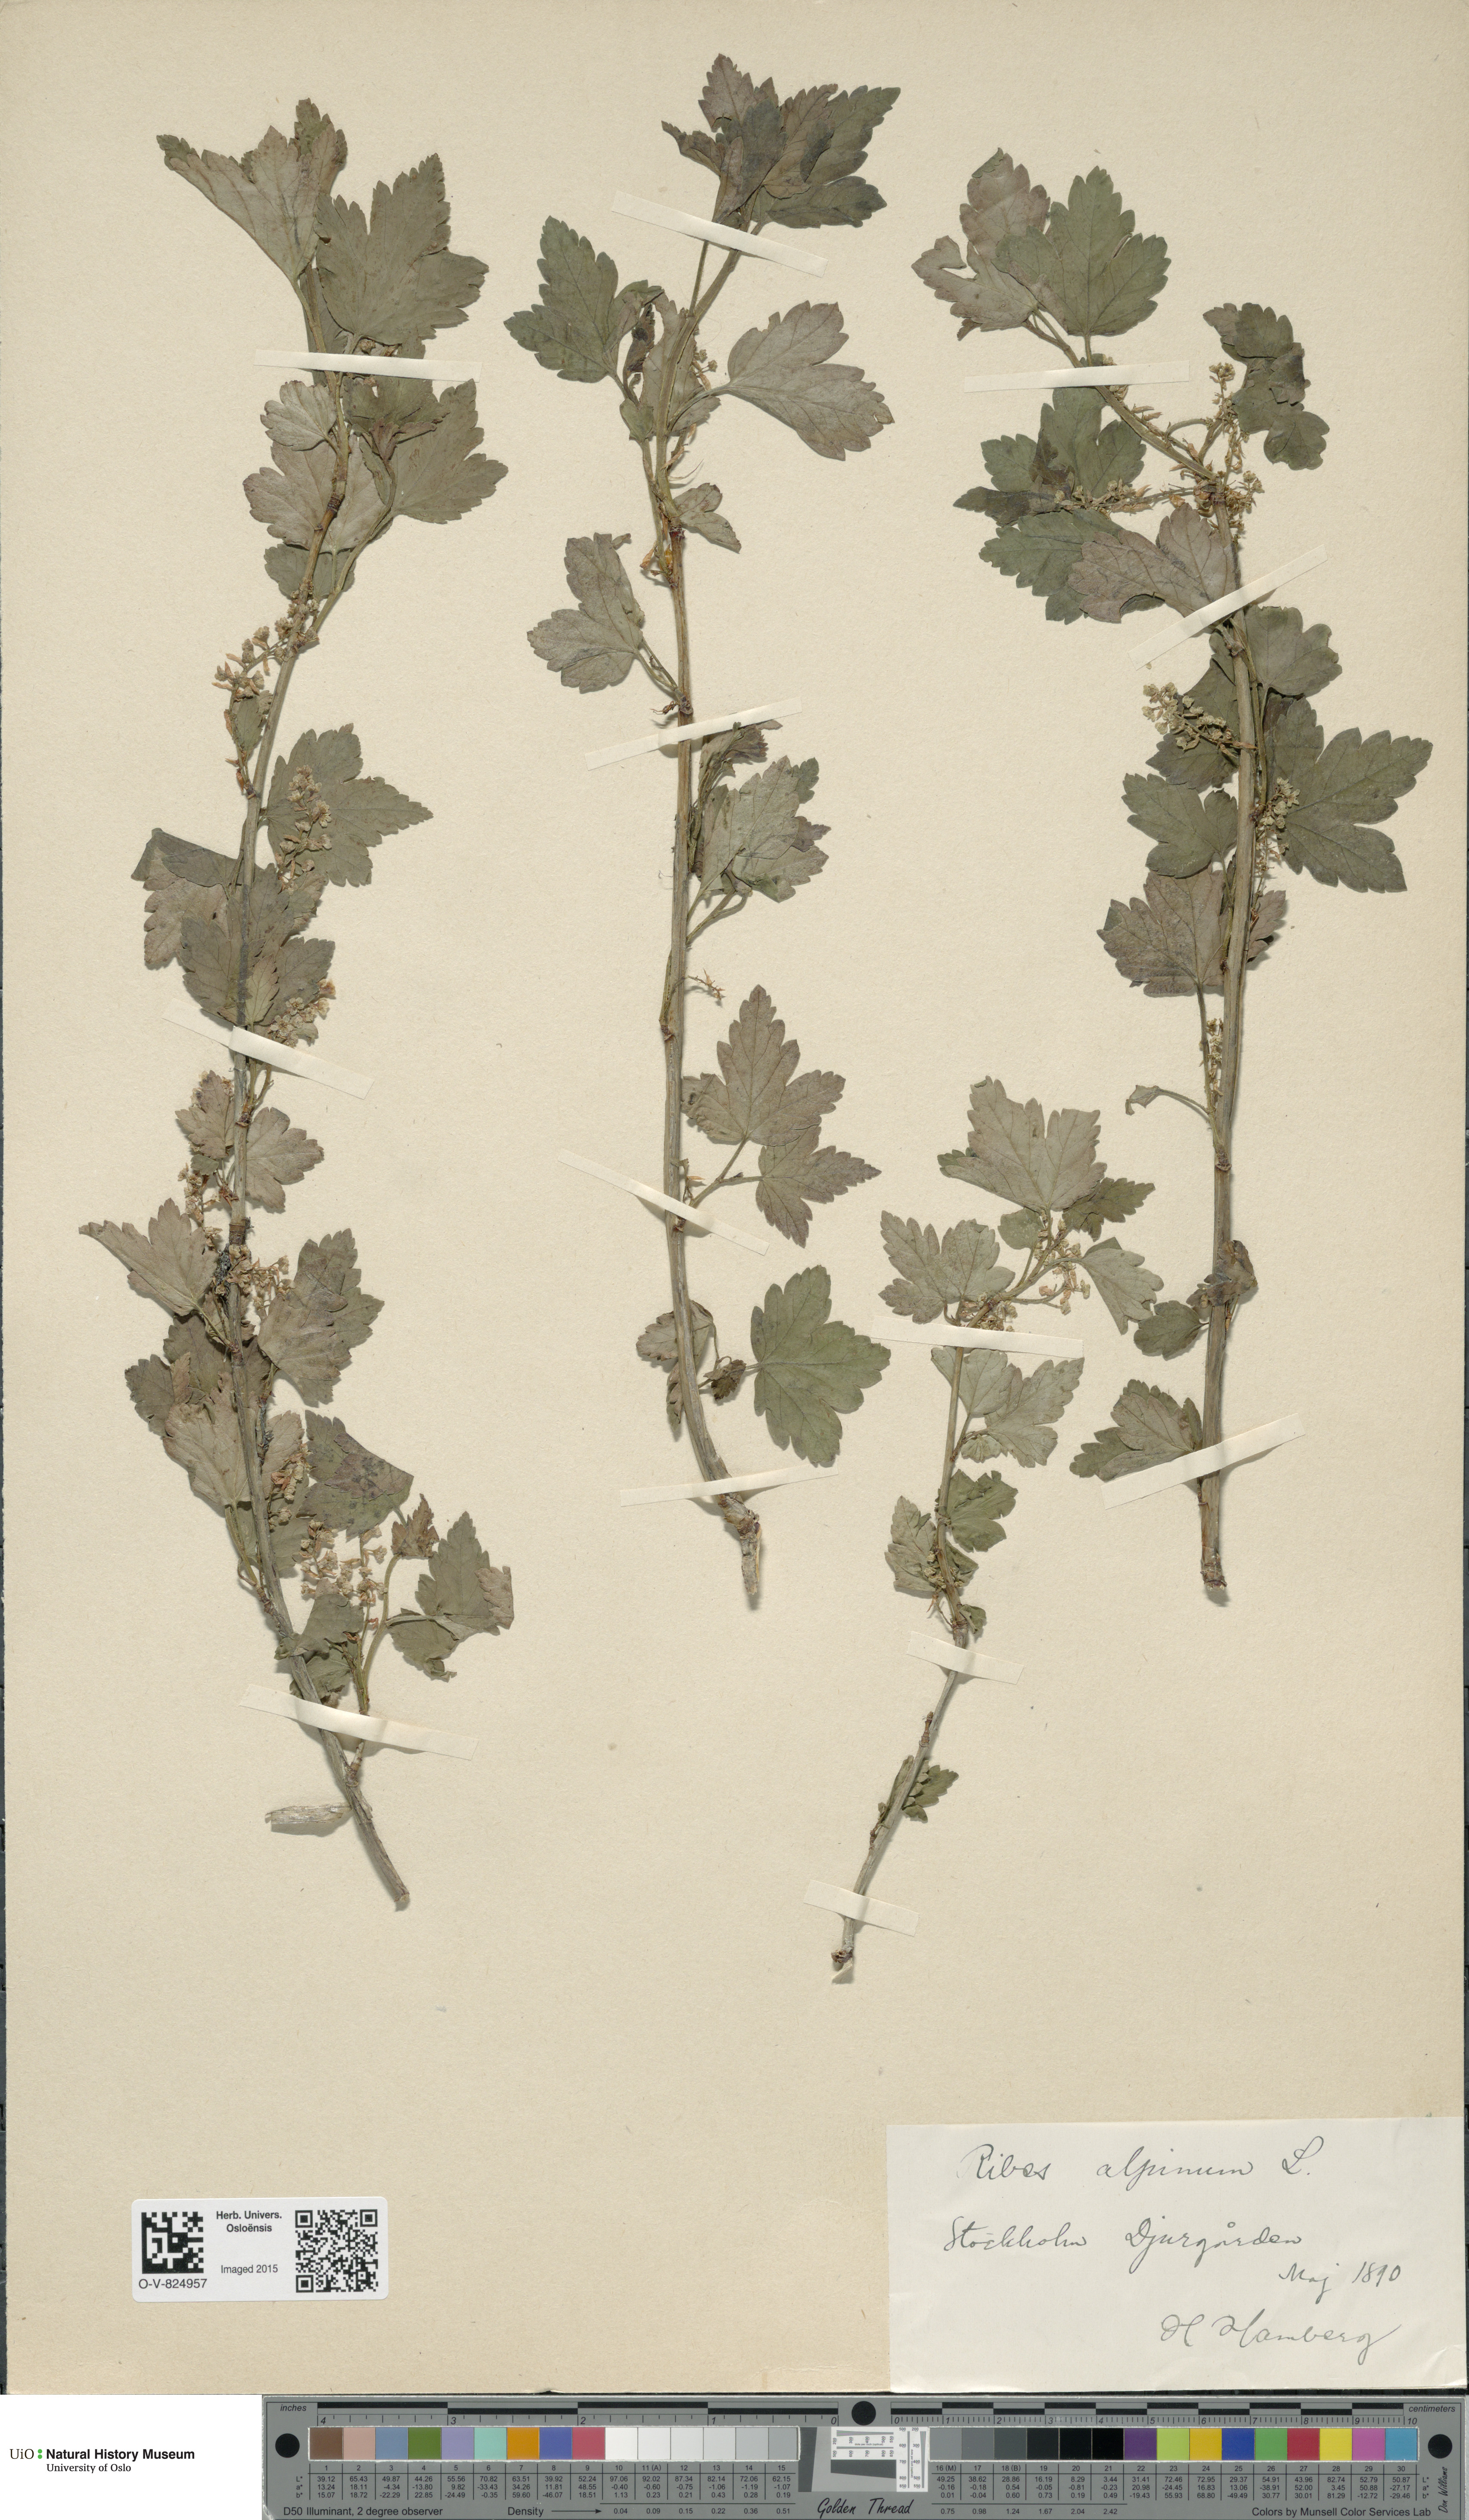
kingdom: Plantae
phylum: Tracheophyta
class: Magnoliopsida
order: Saxifragales
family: Grossulariaceae
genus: Ribes
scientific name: Ribes alpinum
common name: Alpine currant
